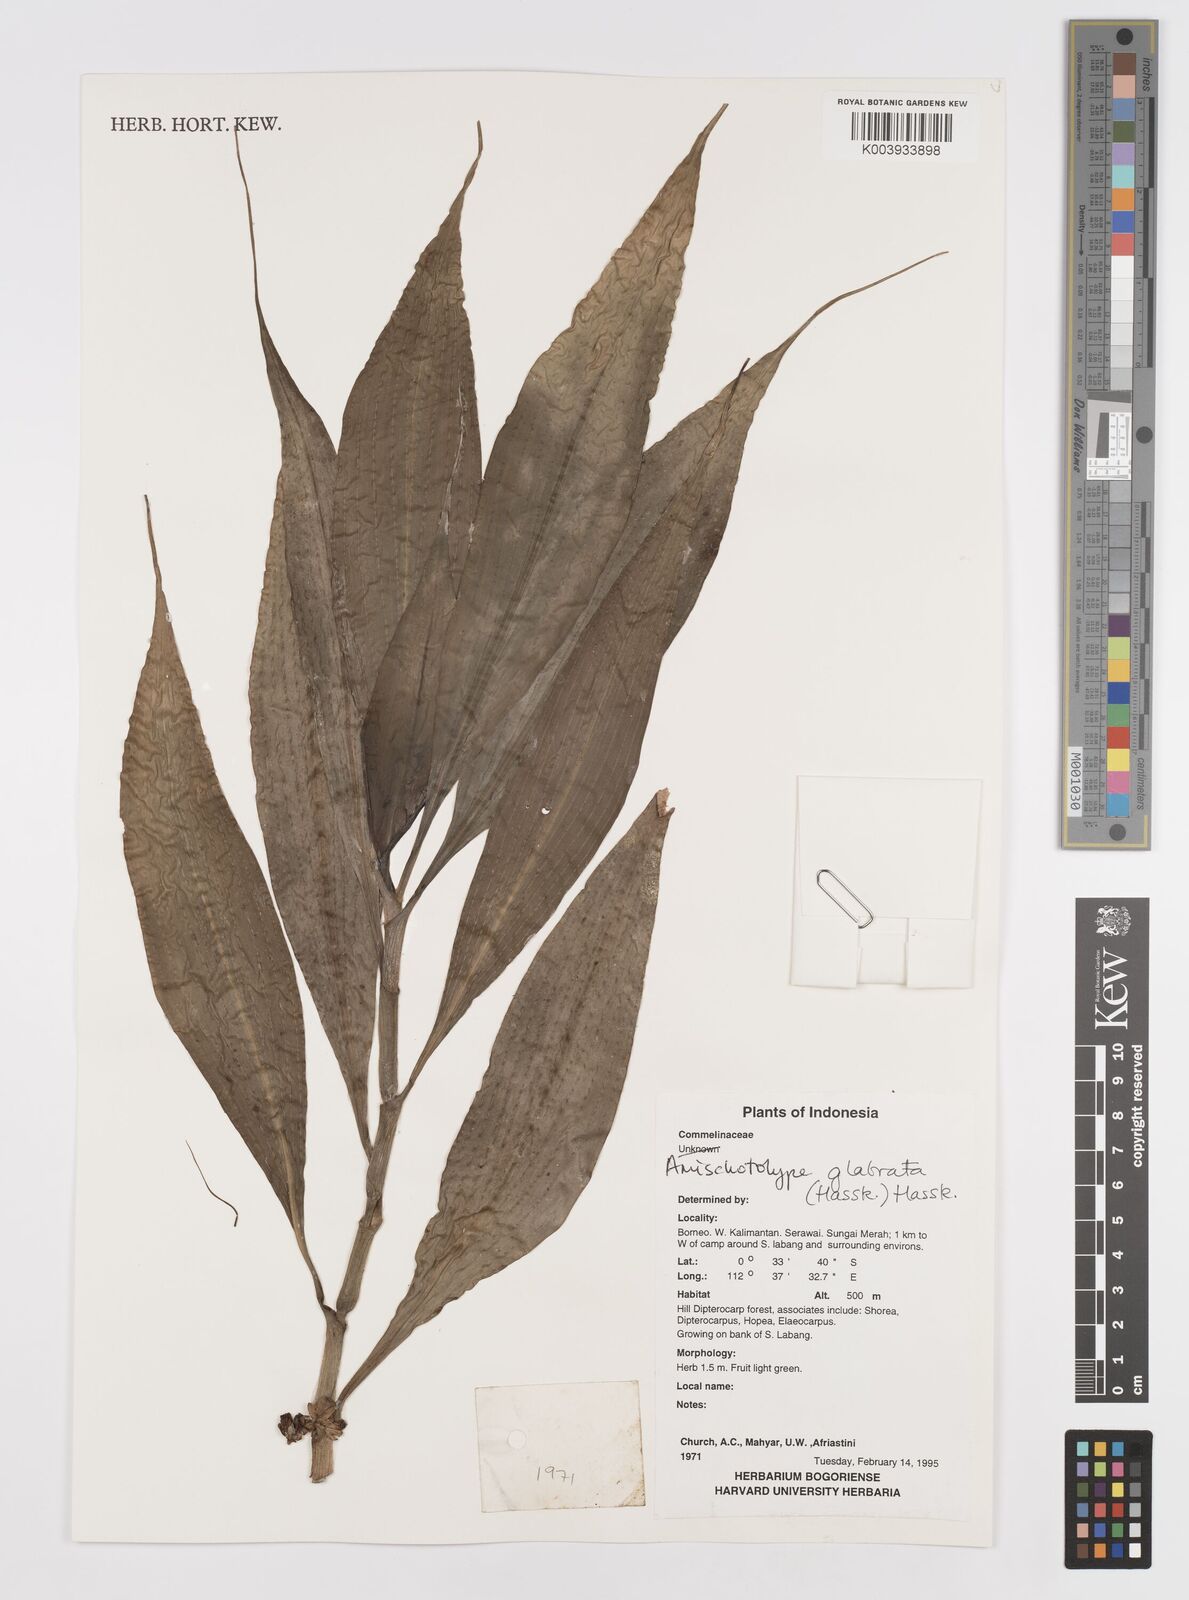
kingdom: Plantae
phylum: Tracheophyta
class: Liliopsida
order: Commelinales
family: Commelinaceae
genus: Amischotolype
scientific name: Amischotolype glabrata
